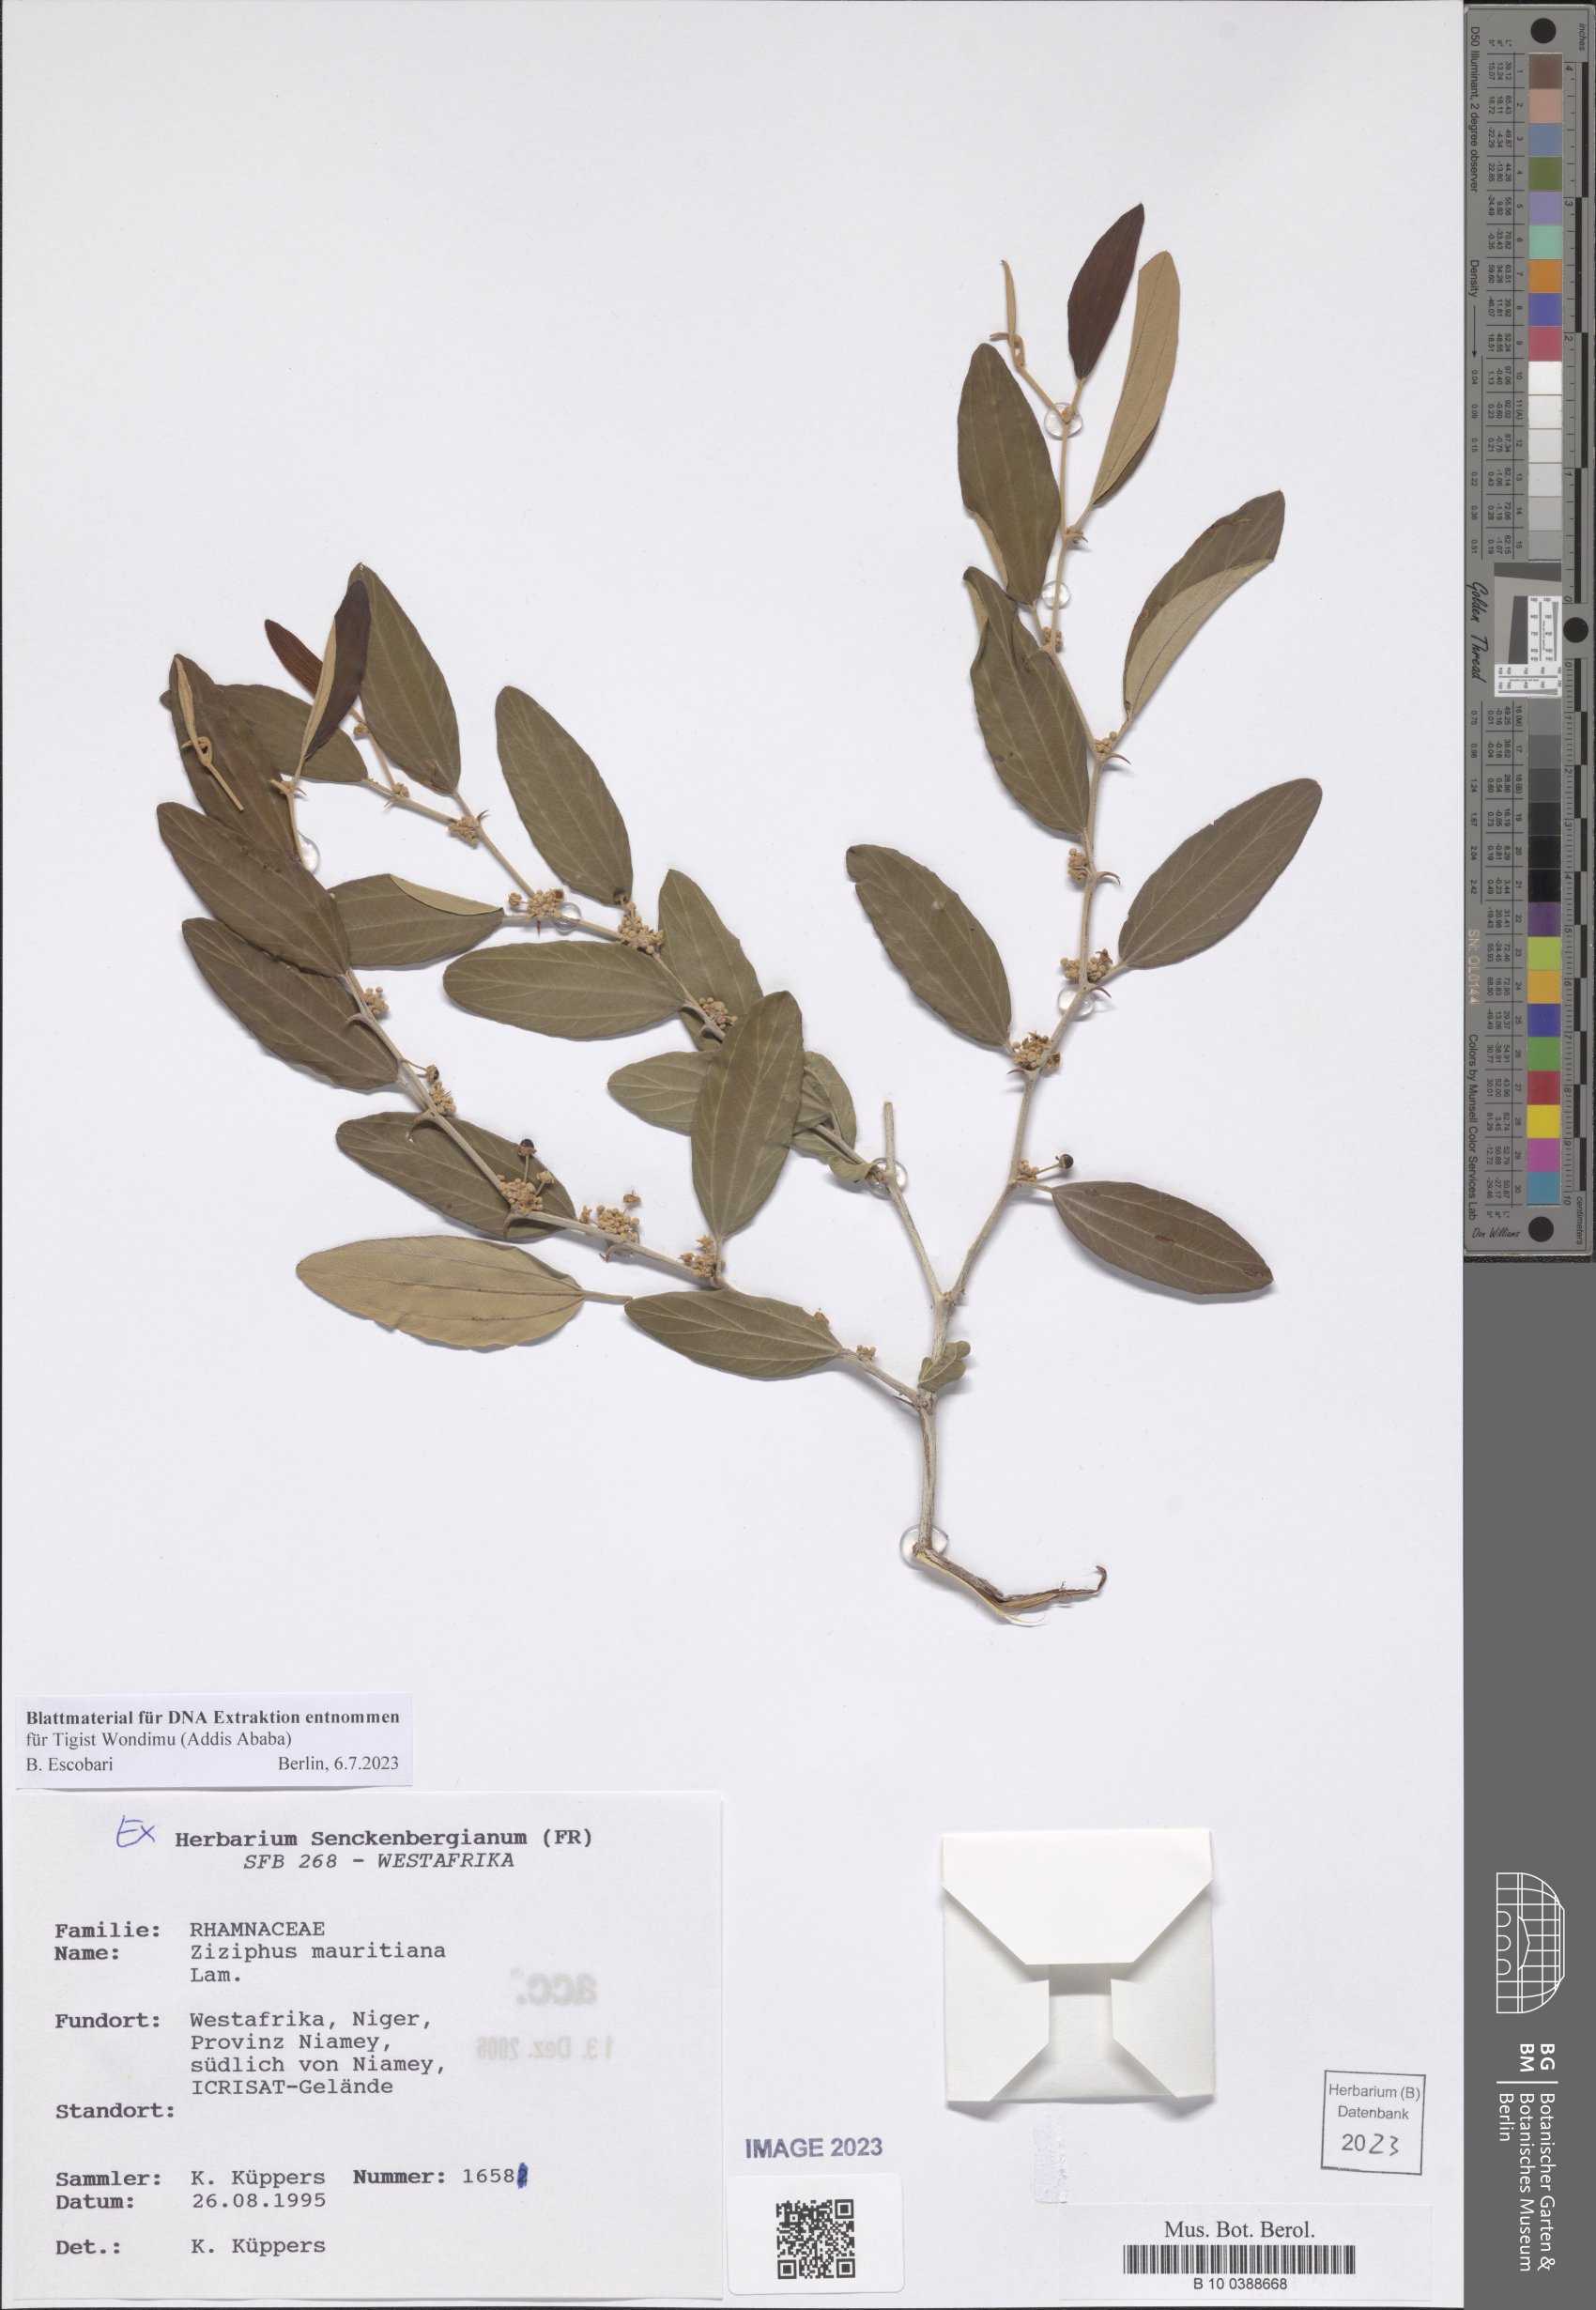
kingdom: Plantae
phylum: Tracheophyta
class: Magnoliopsida
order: Rosales
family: Rhamnaceae
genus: Ziziphus
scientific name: Ziziphus mauritiana
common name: Indian jujube
